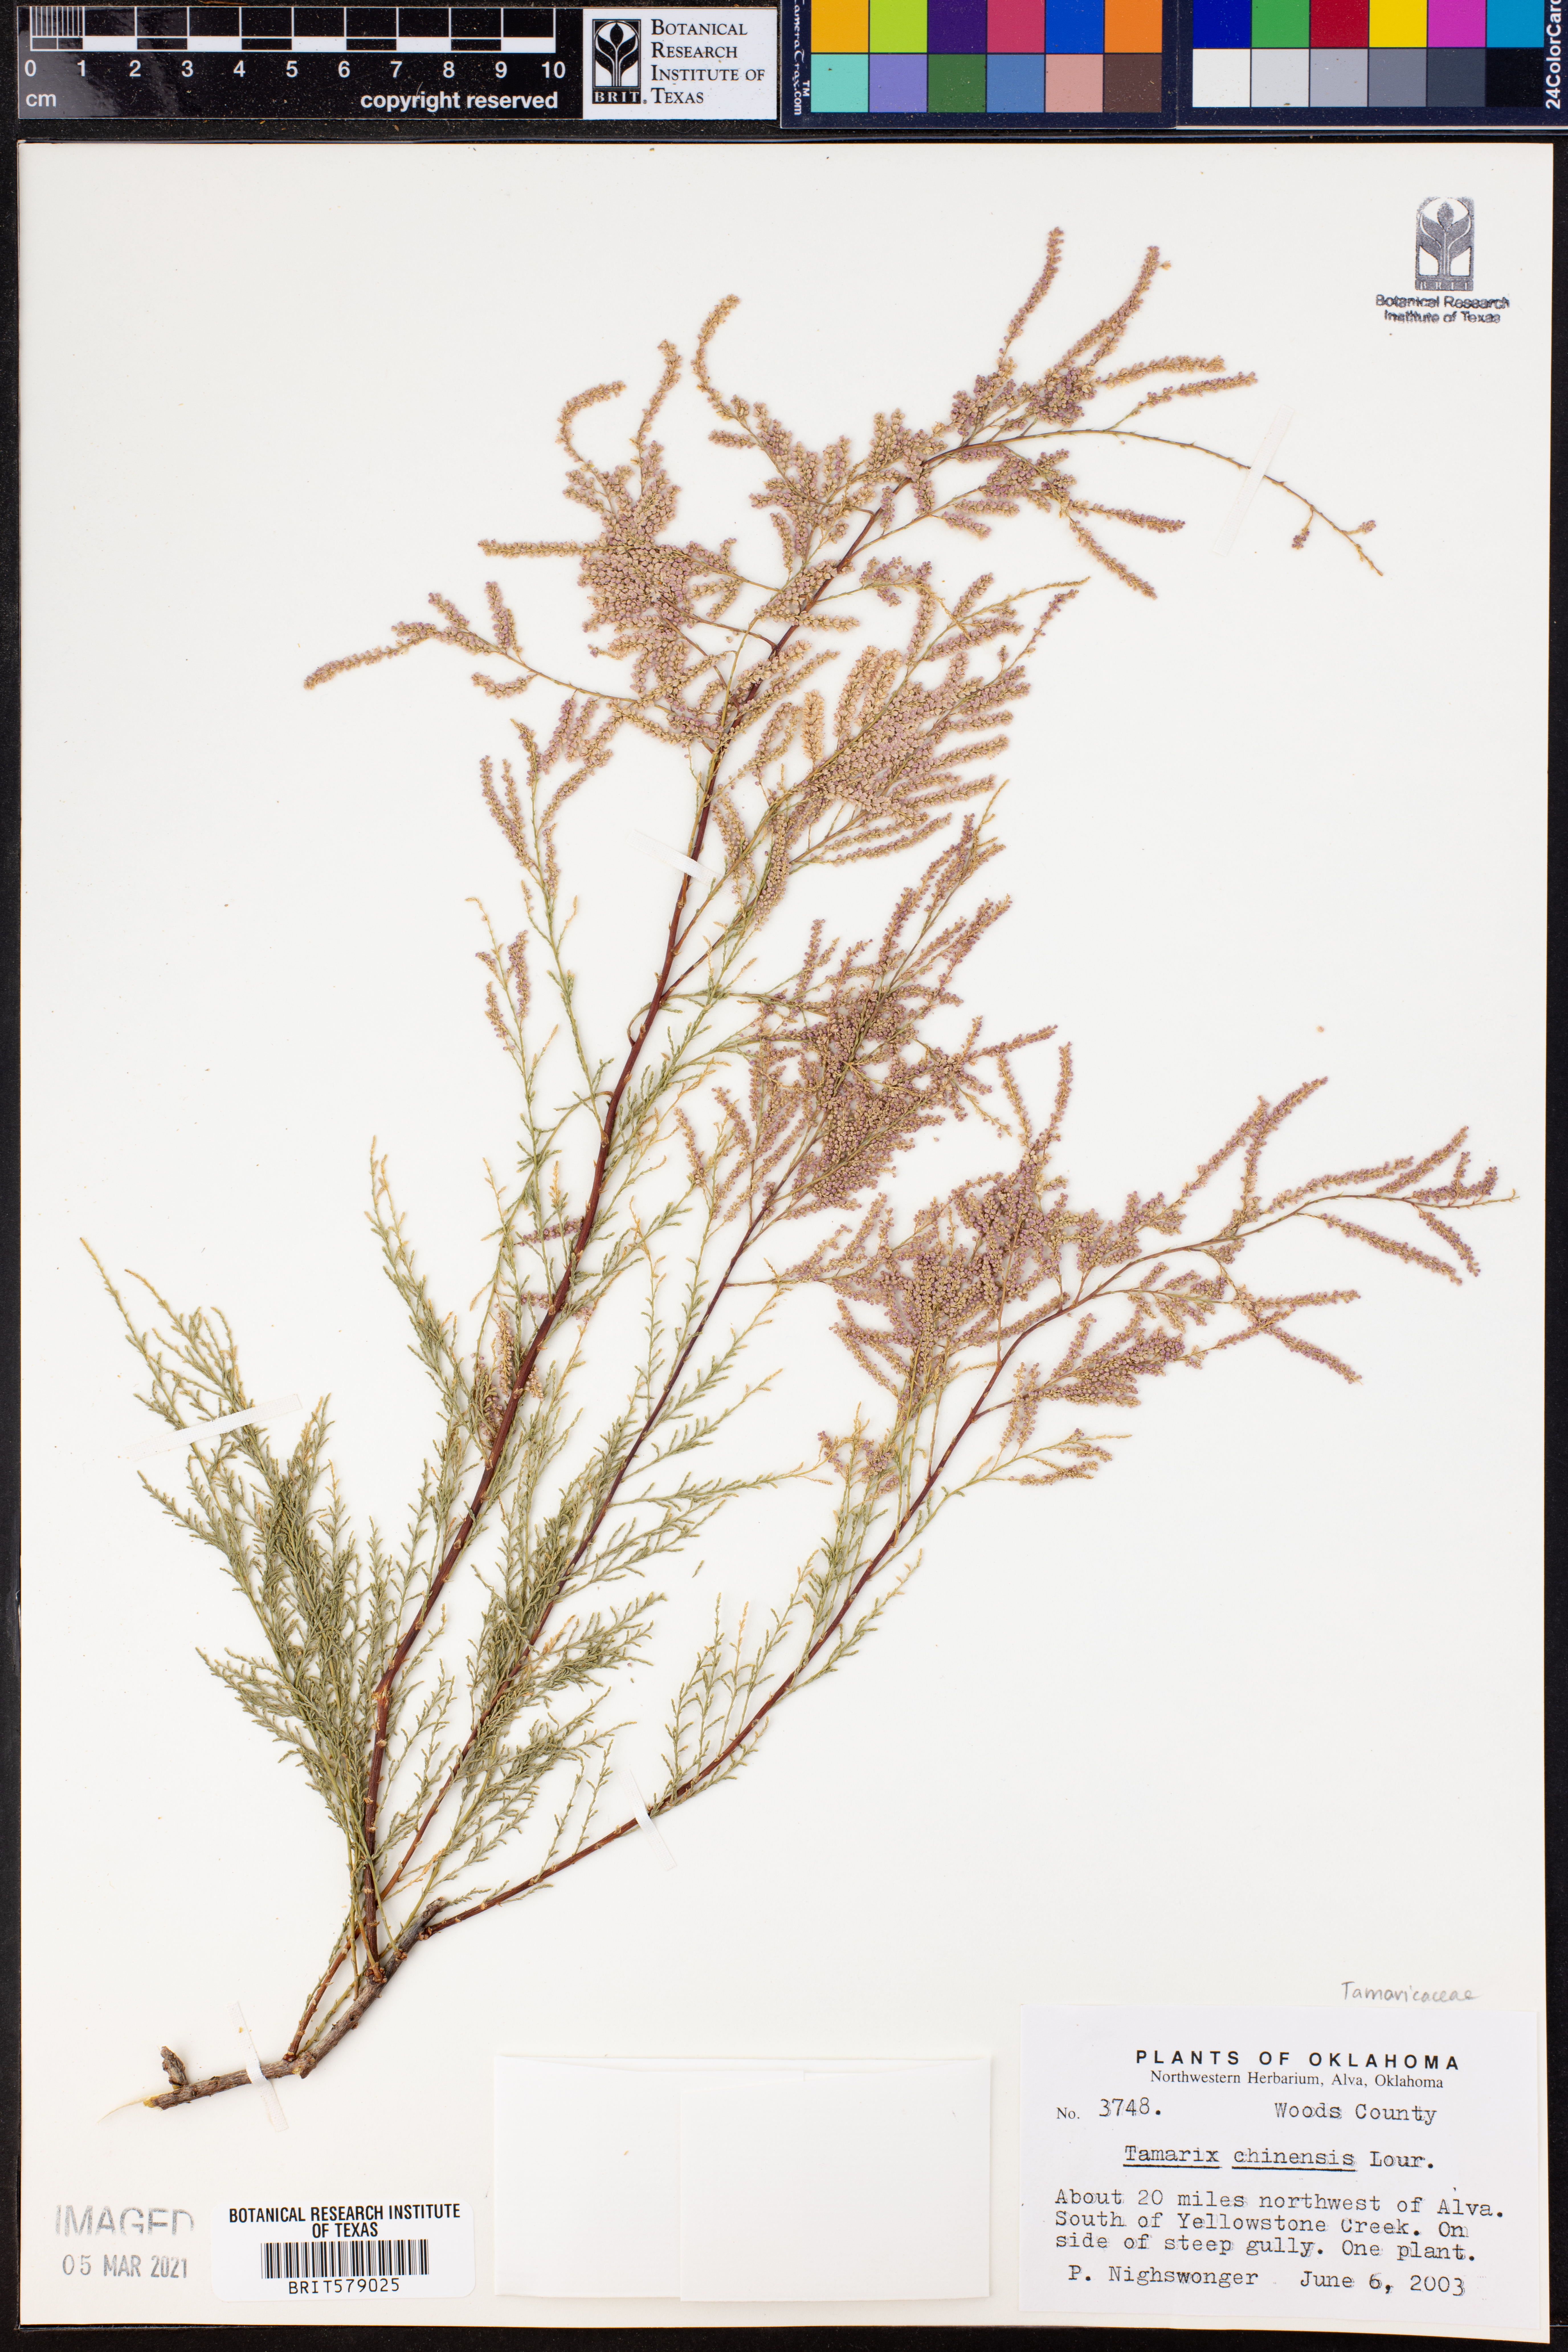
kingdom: Plantae
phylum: Tracheophyta
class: Magnoliopsida
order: Caryophyllales
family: Tamaricaceae
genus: Tamarix
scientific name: Tamarix chinensis
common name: Chinese tamarisk
